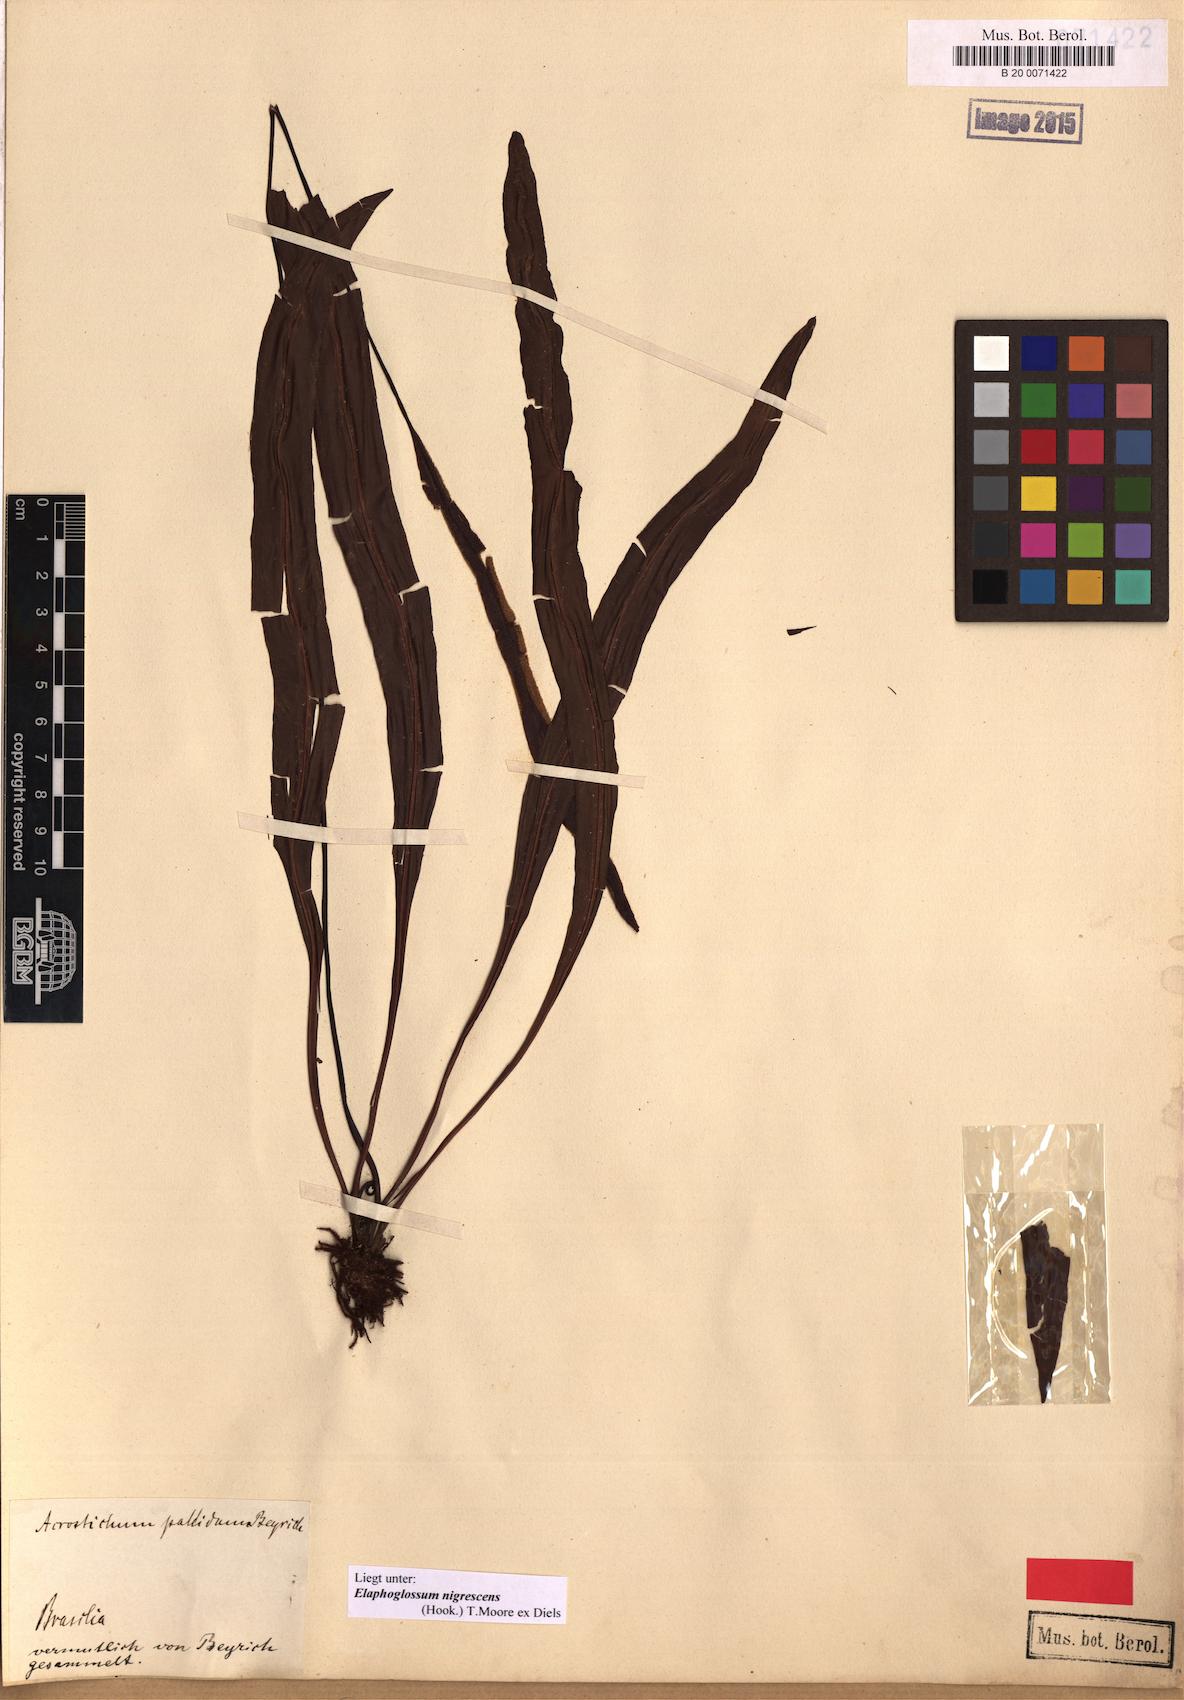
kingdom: Plantae
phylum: Tracheophyta
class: Polypodiopsida
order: Polypodiales
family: Dryopteridaceae
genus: Elaphoglossum
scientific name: Elaphoglossum nigrescens
